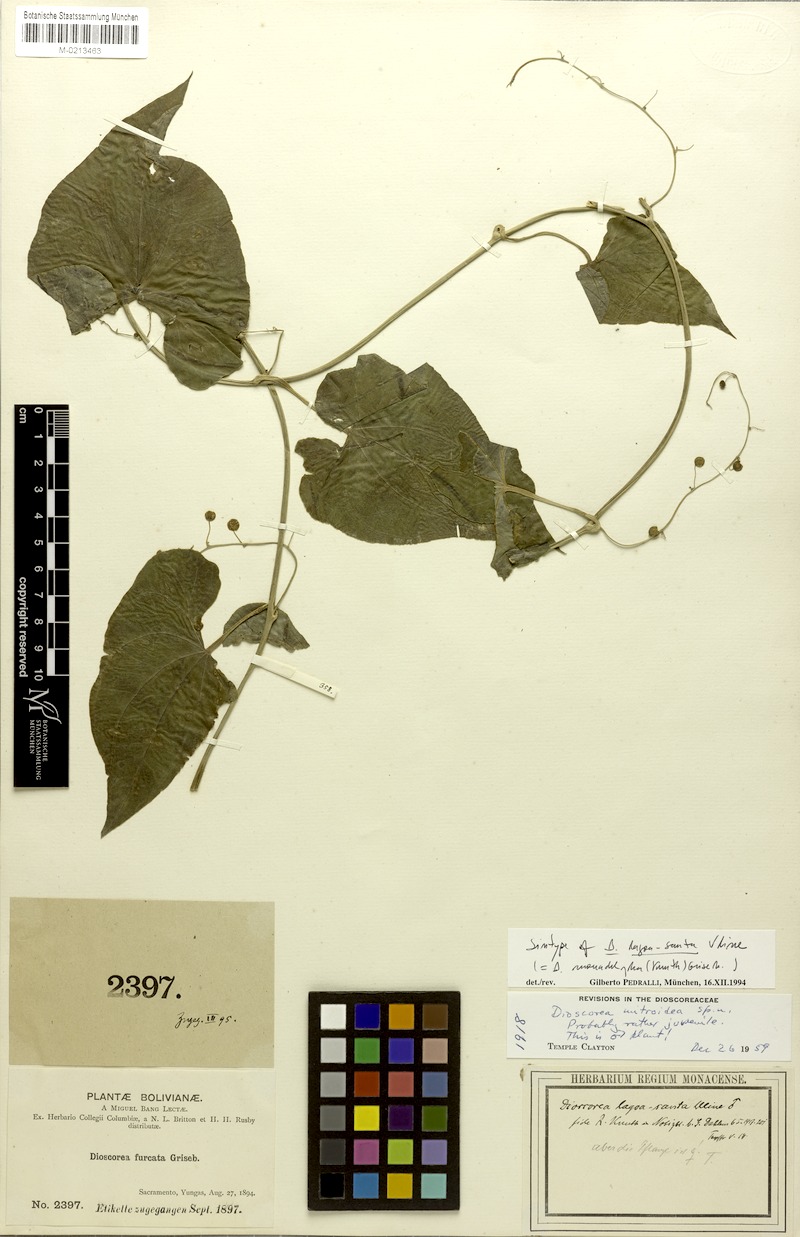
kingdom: Plantae
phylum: Tracheophyta
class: Liliopsida
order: Dioscoreales
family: Dioscoreaceae
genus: Dioscorea
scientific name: Dioscorea
